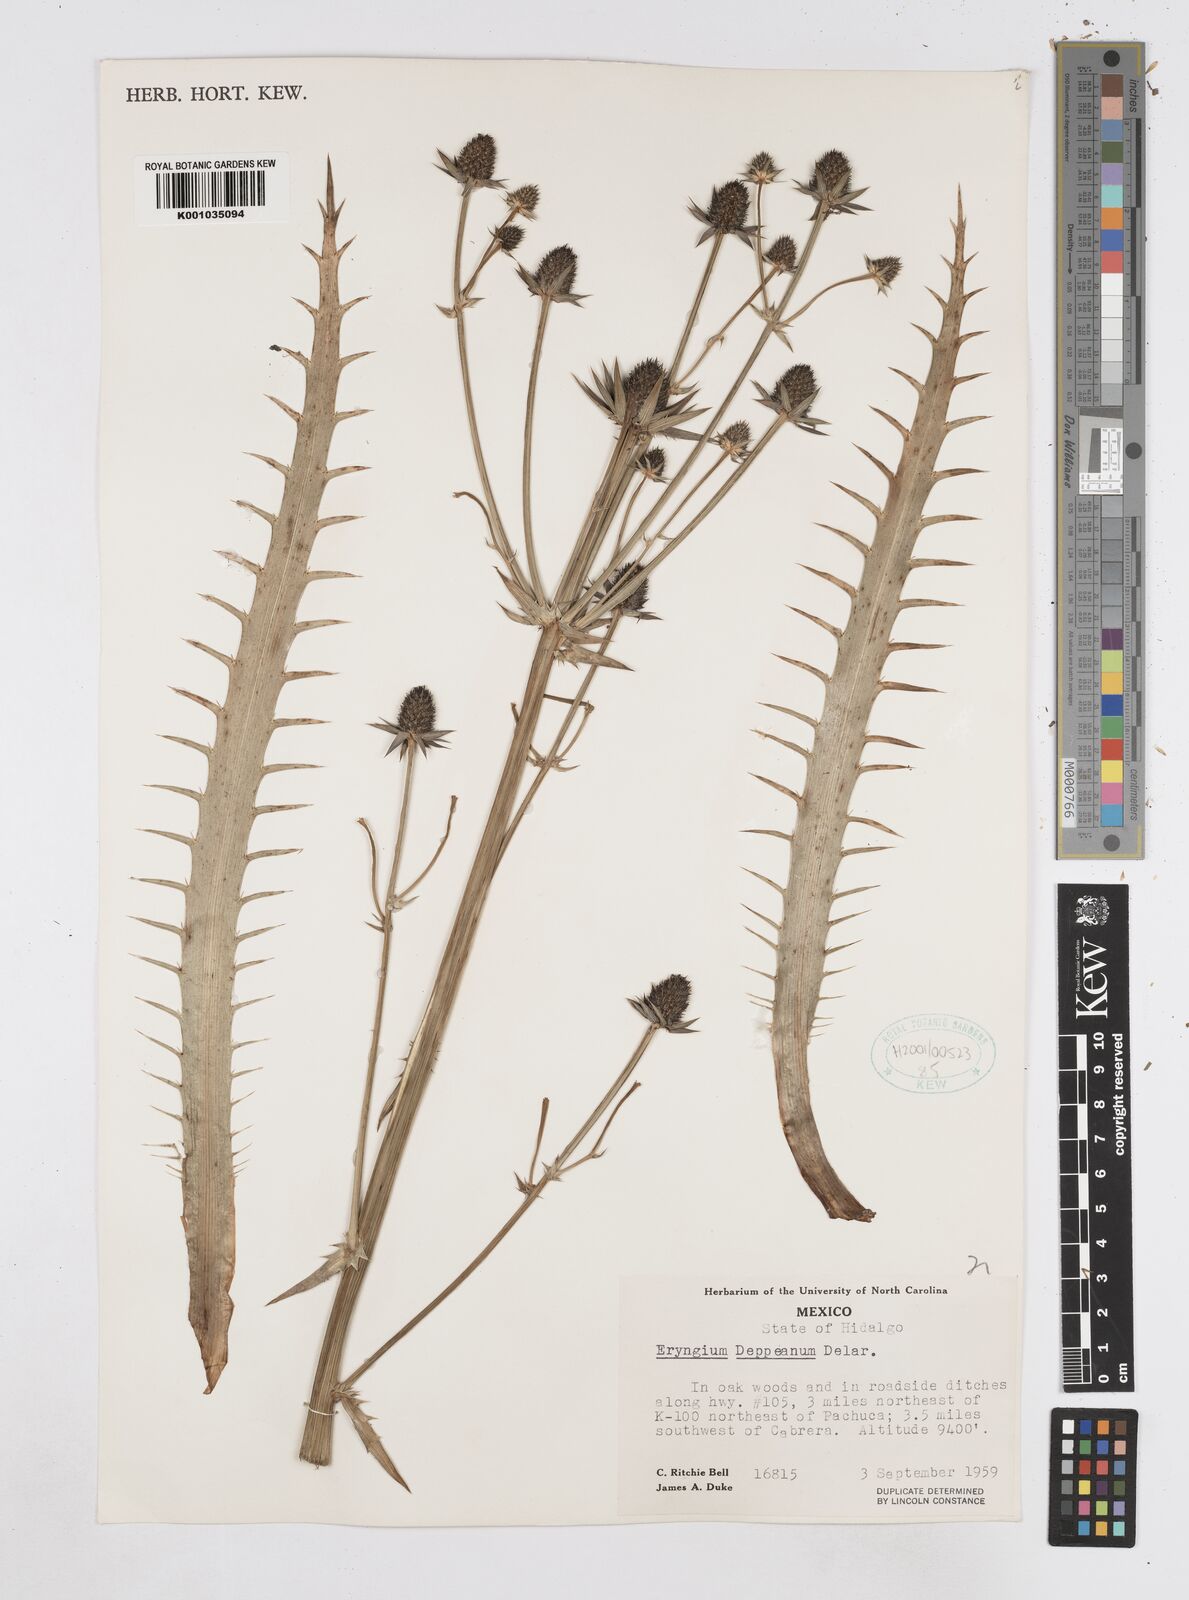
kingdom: Plantae
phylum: Tracheophyta
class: Magnoliopsida
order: Apiales
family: Apiaceae
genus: Eryngium
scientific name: Eryngium deppeanum
